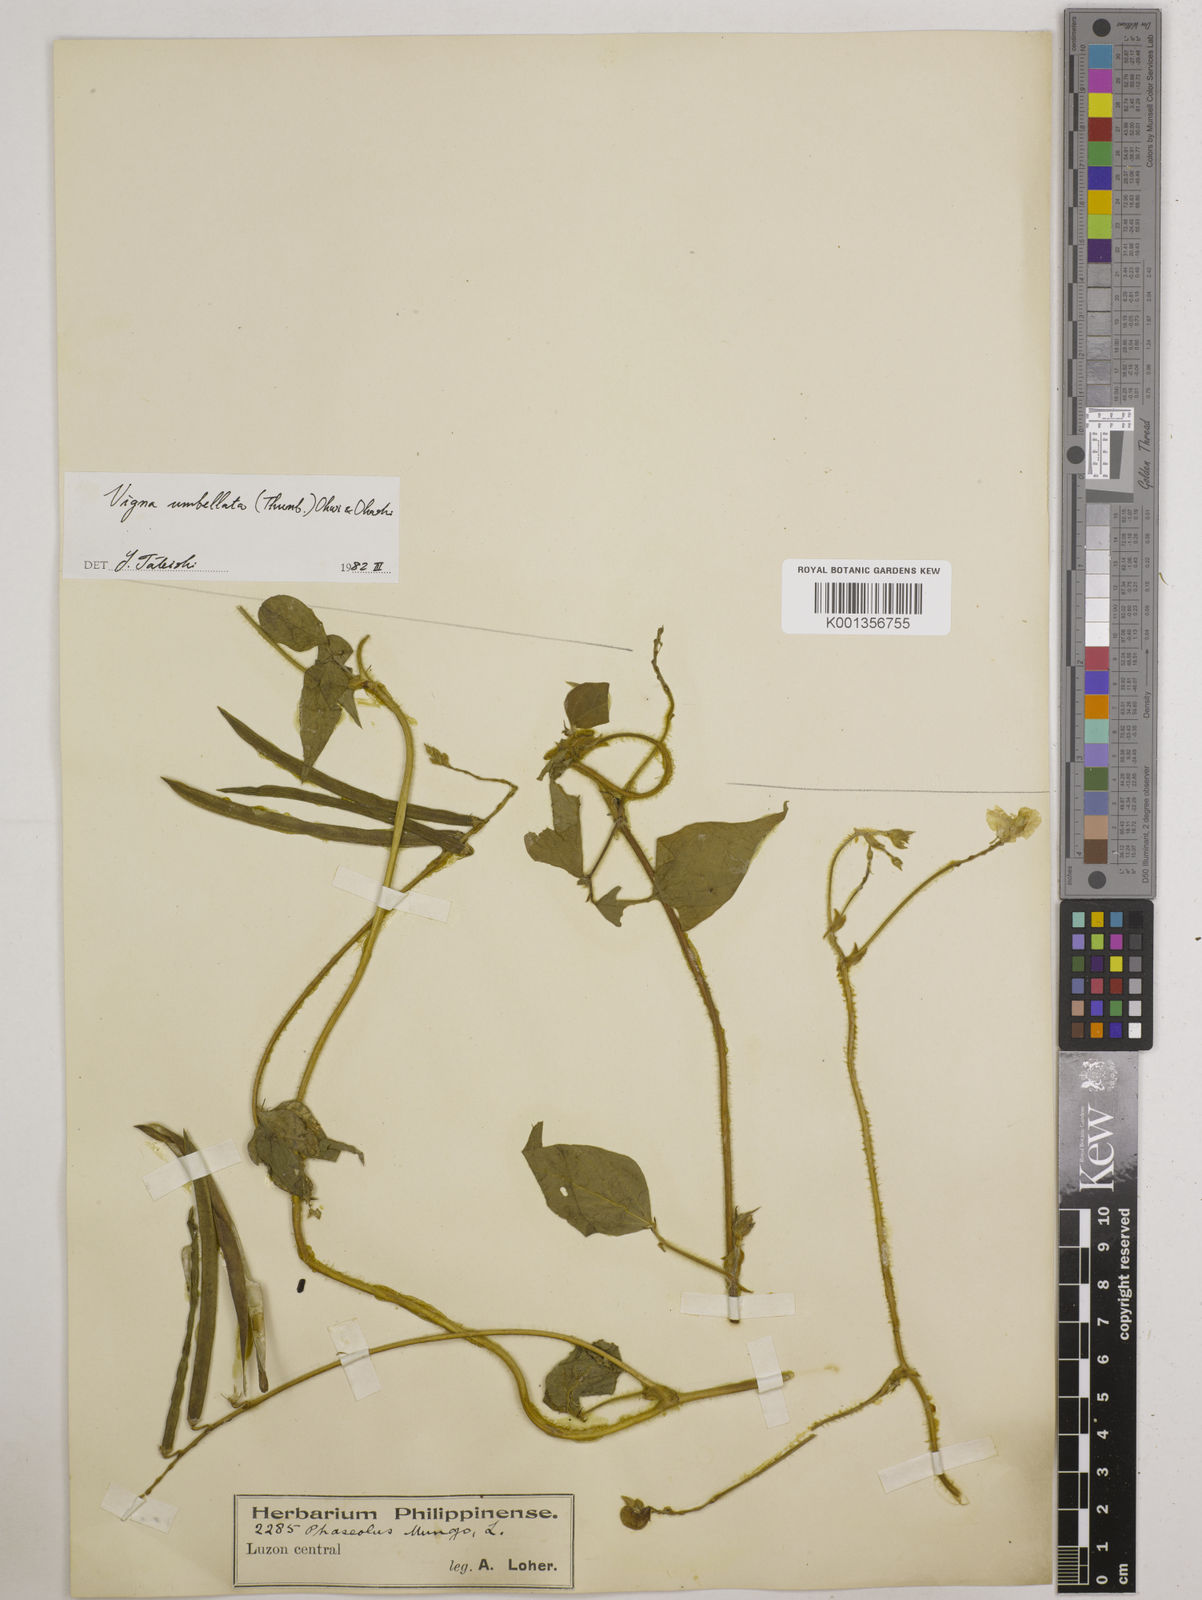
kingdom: Plantae
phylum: Tracheophyta
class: Magnoliopsida
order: Fabales
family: Fabaceae
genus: Vigna
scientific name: Vigna umbellata
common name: Oriental-bean
